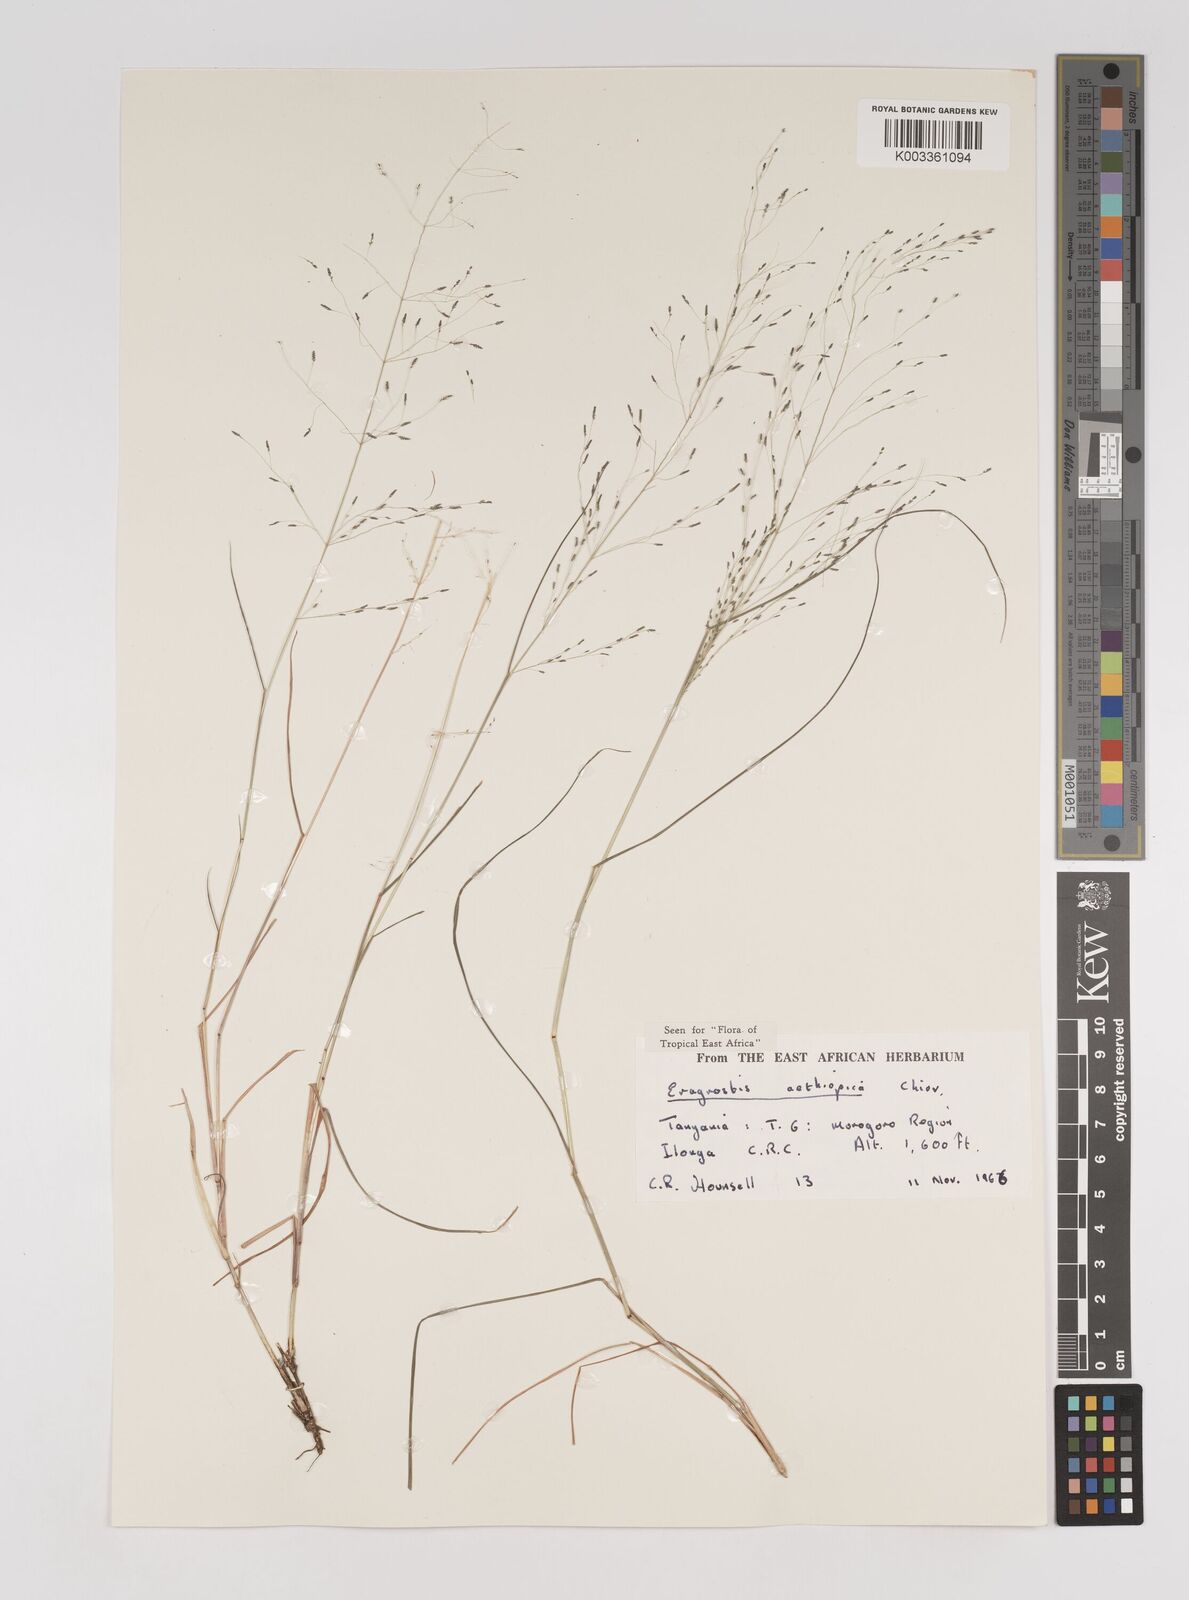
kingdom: Plantae
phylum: Tracheophyta
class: Liliopsida
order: Poales
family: Poaceae
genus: Eragrostis
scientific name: Eragrostis aethiopica
